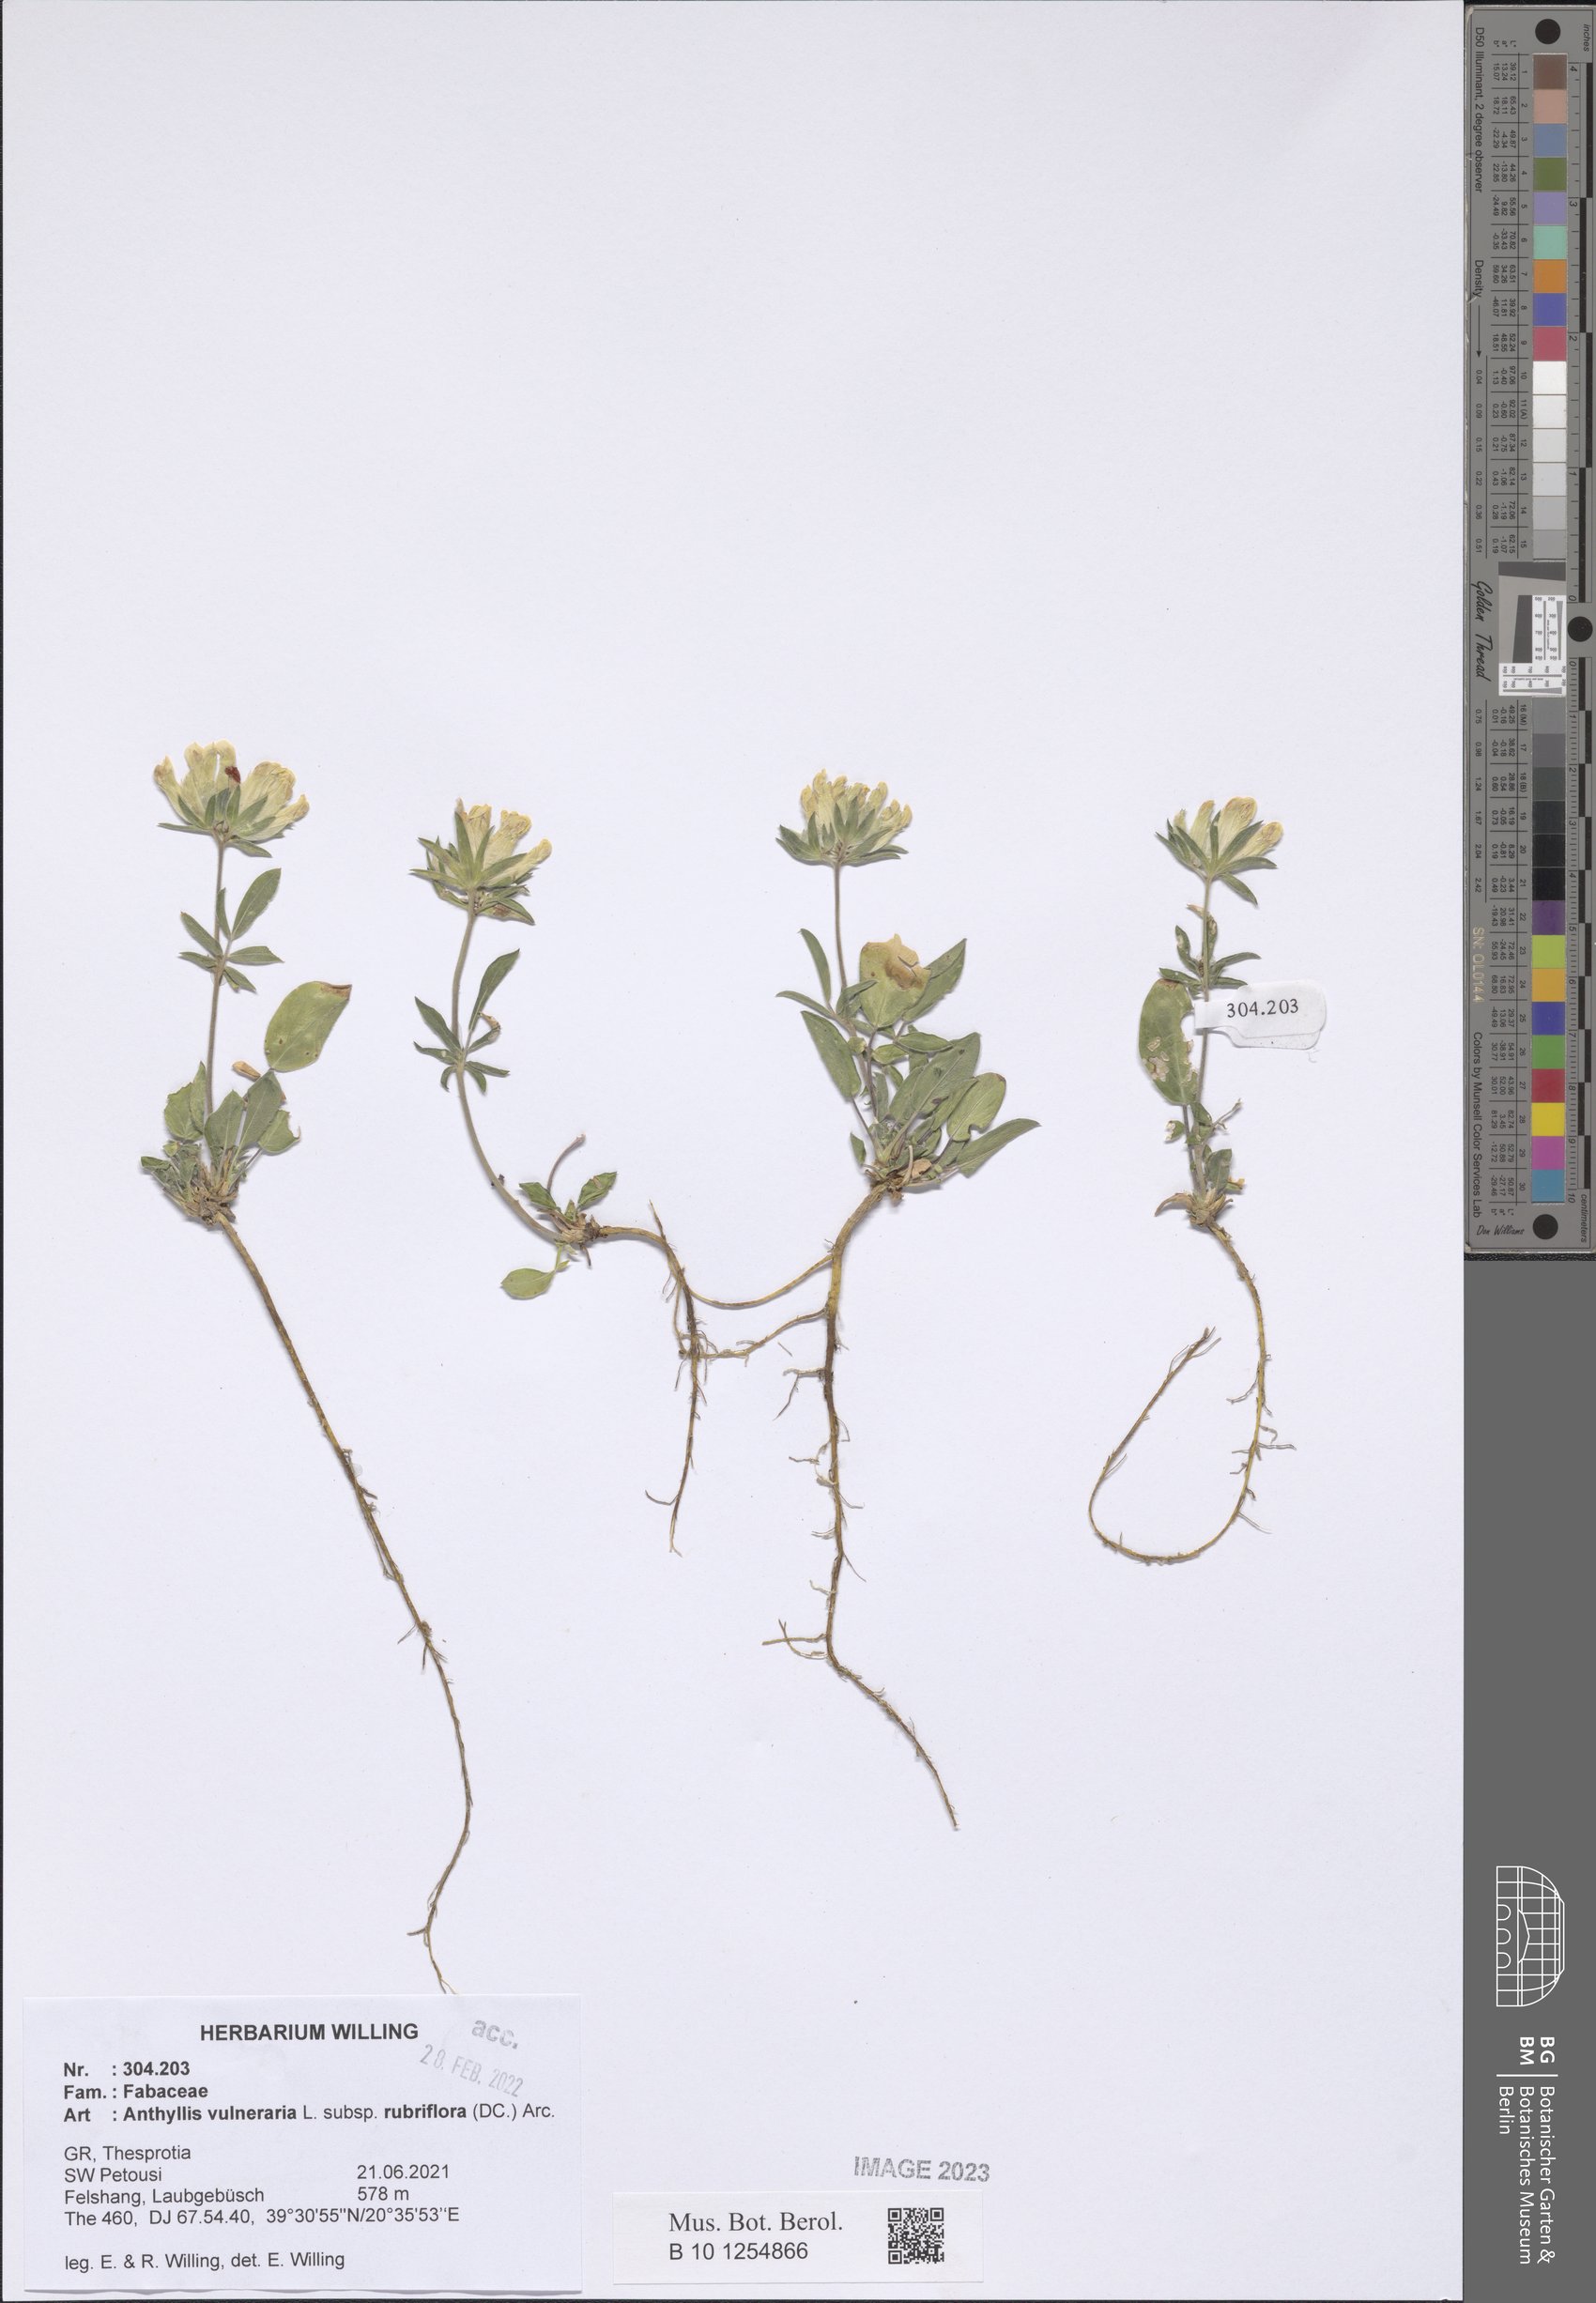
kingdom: Plantae
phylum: Tracheophyta
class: Magnoliopsida
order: Fabales
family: Fabaceae
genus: Anthyllis
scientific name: Anthyllis vulneraria
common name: Kidney vetch
